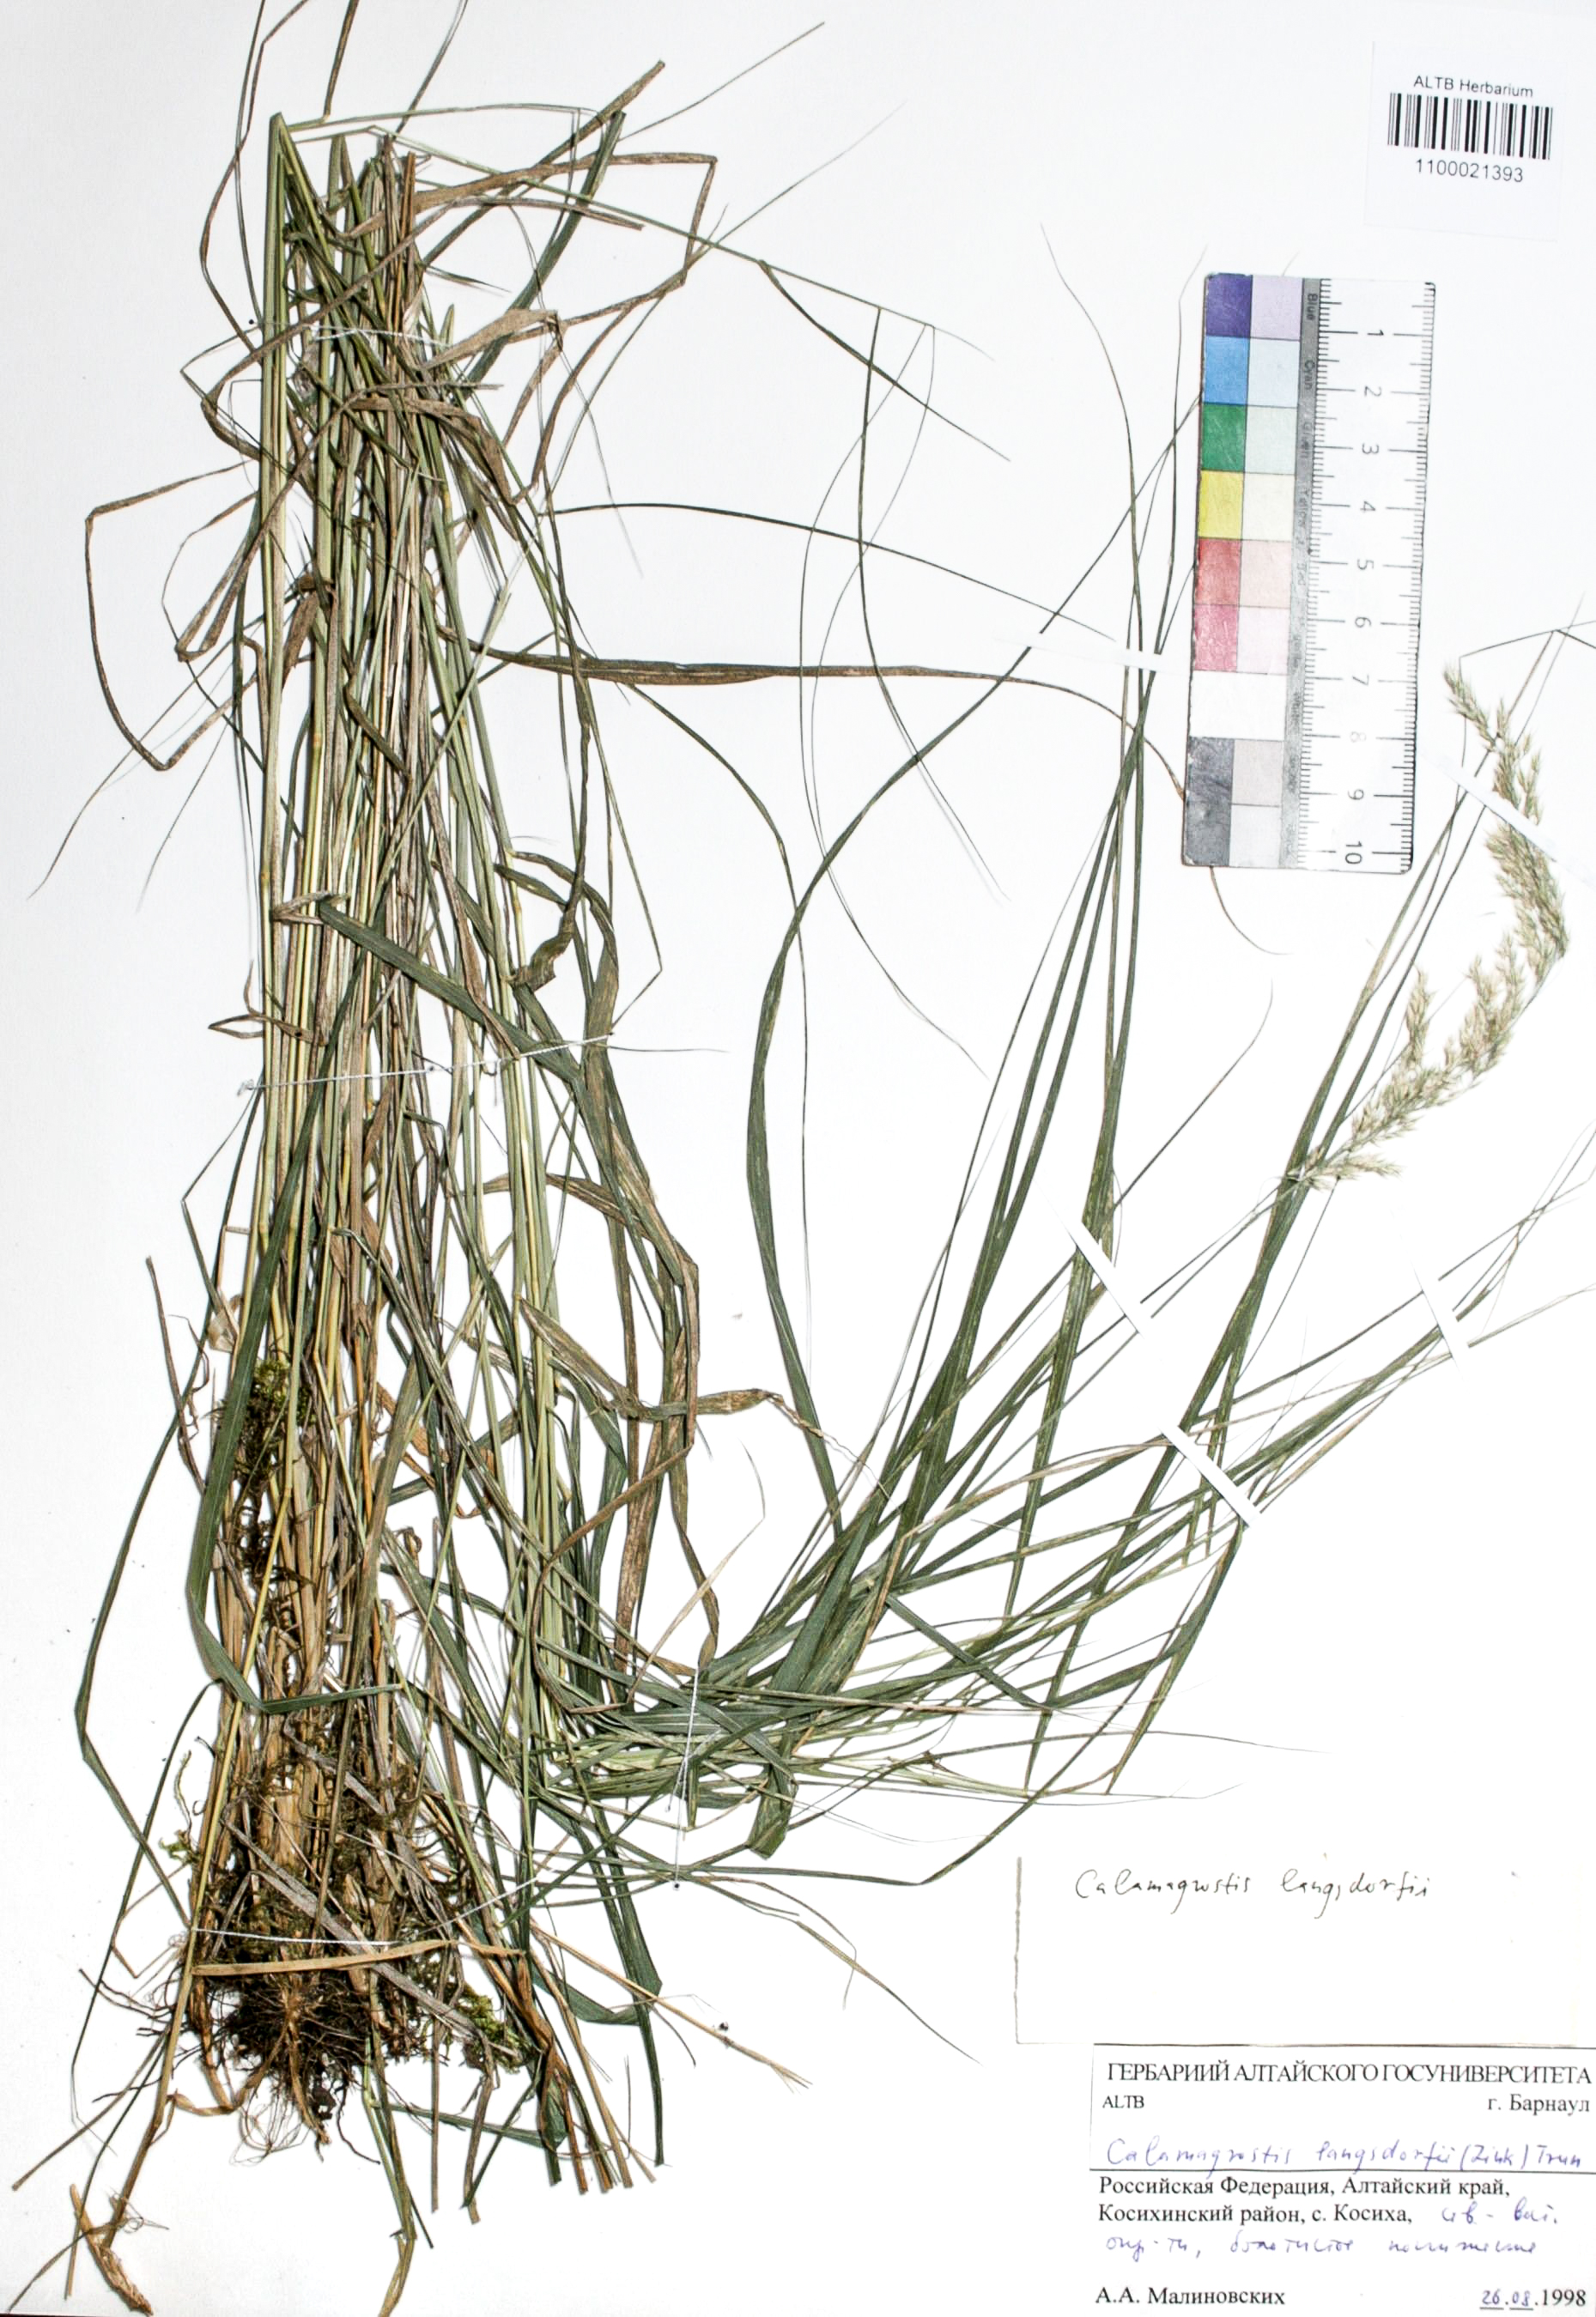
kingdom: Plantae
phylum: Tracheophyta
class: Liliopsida
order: Poales
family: Poaceae
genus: Calamagrostis
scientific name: Calamagrostis canescens
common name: Purple small-reed
